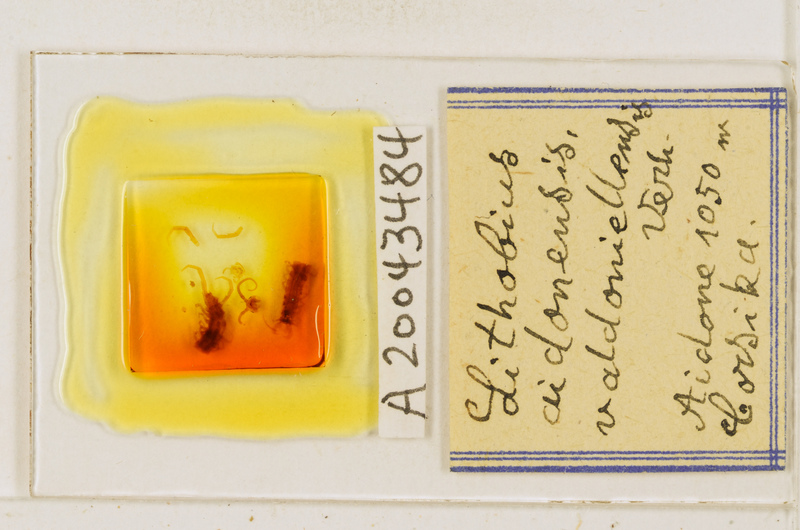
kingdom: Animalia
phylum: Arthropoda
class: Chilopoda
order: Lithobiomorpha
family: Lithobiidae
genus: Lithobius
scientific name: Lithobius aidonensis
